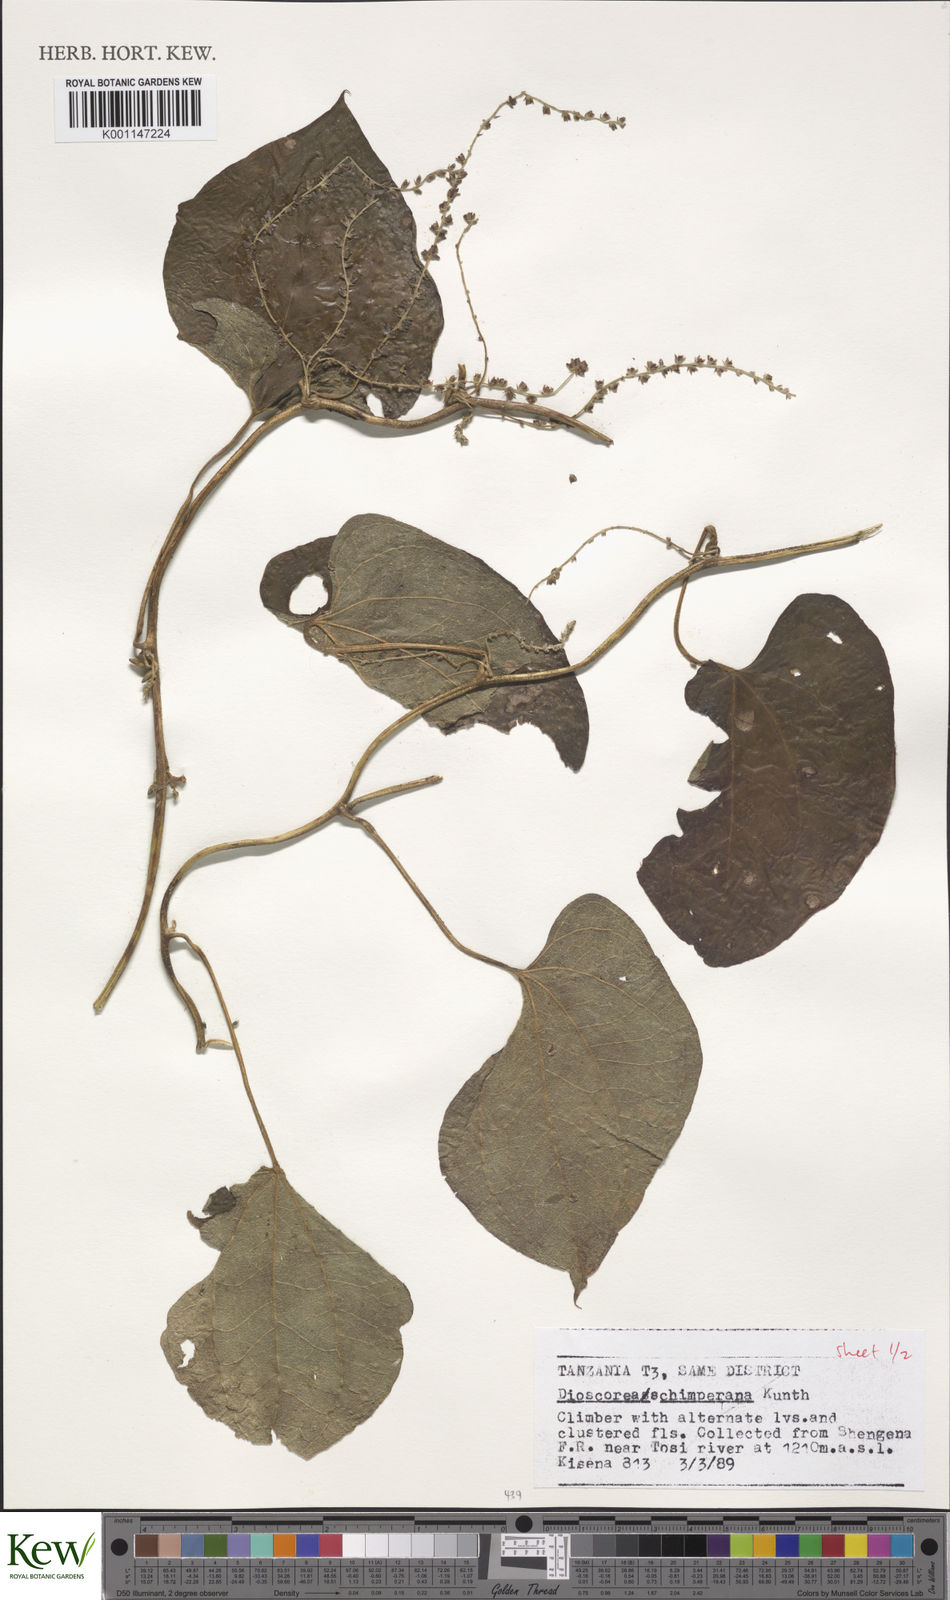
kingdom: Plantae
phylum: Tracheophyta
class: Liliopsida
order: Dioscoreales
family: Dioscoreaceae
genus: Dioscorea
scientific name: Dioscorea schimperiana
